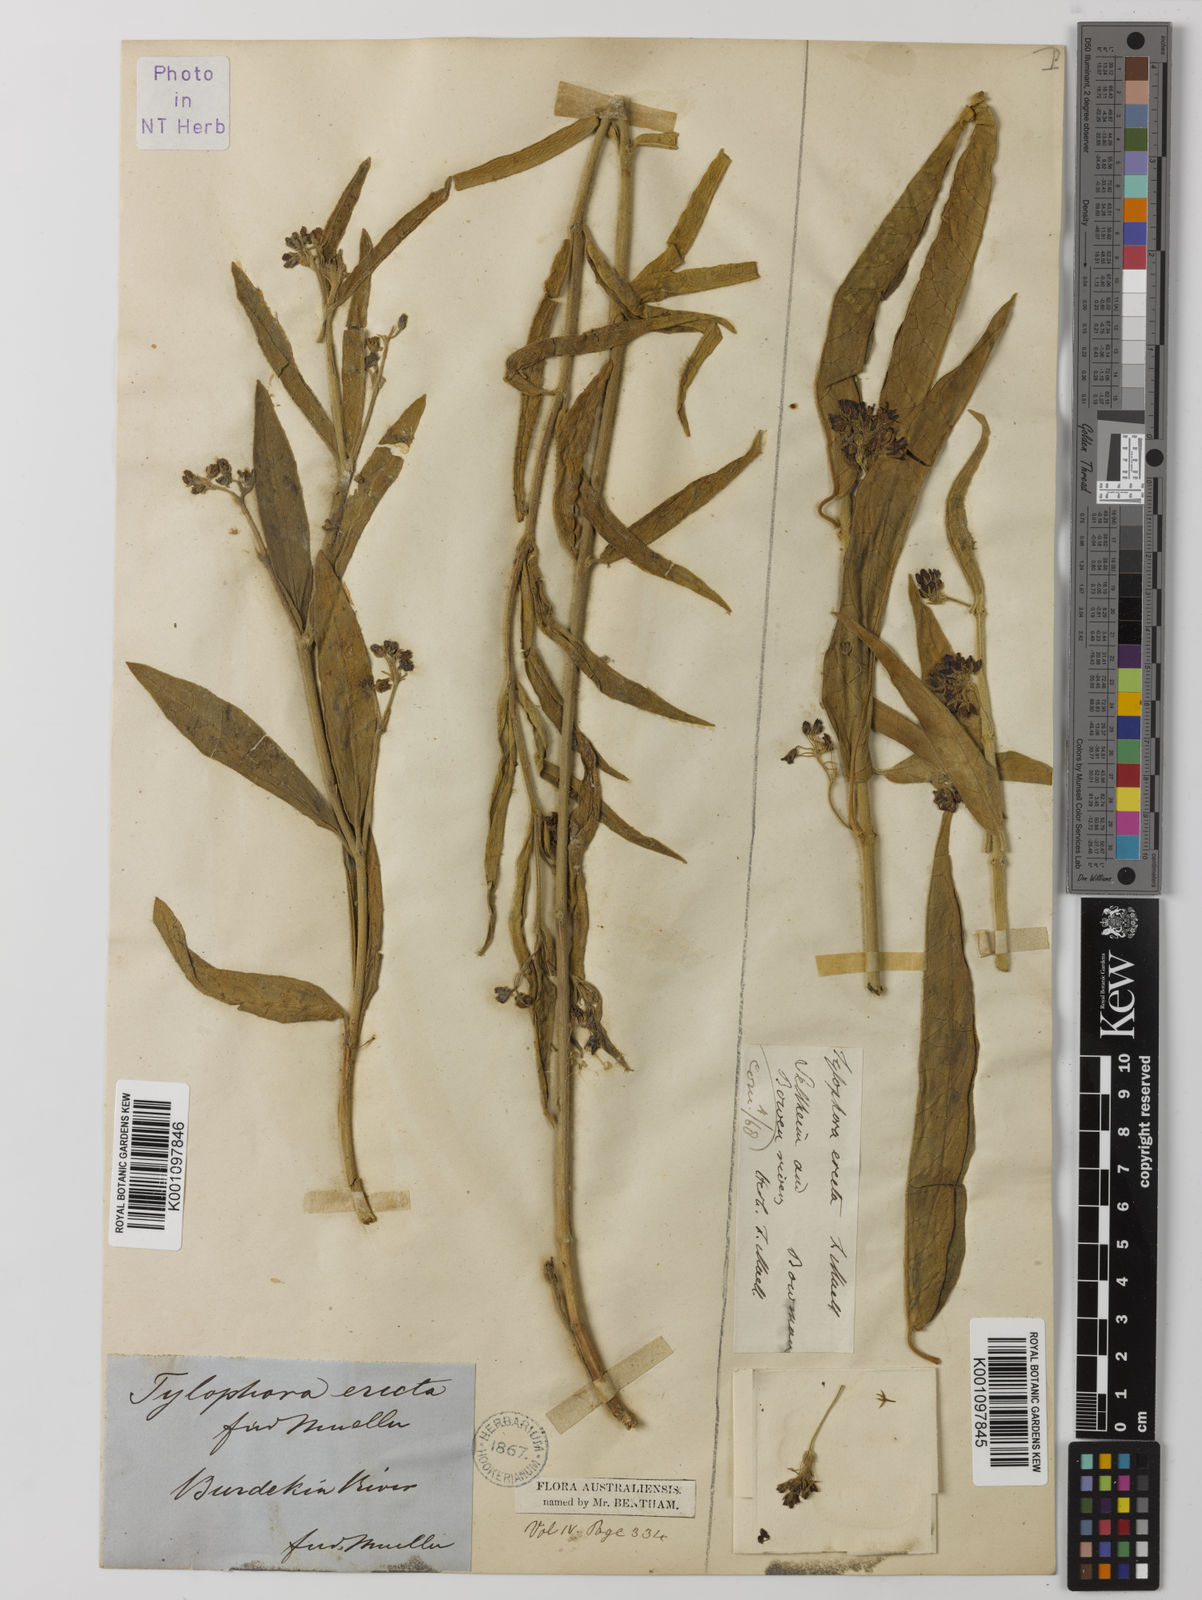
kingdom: Plantae
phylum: Tracheophyta
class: Magnoliopsida
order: Gentianales
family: Apocynaceae
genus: Vincetoxicum
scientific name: Vincetoxicum erectum
